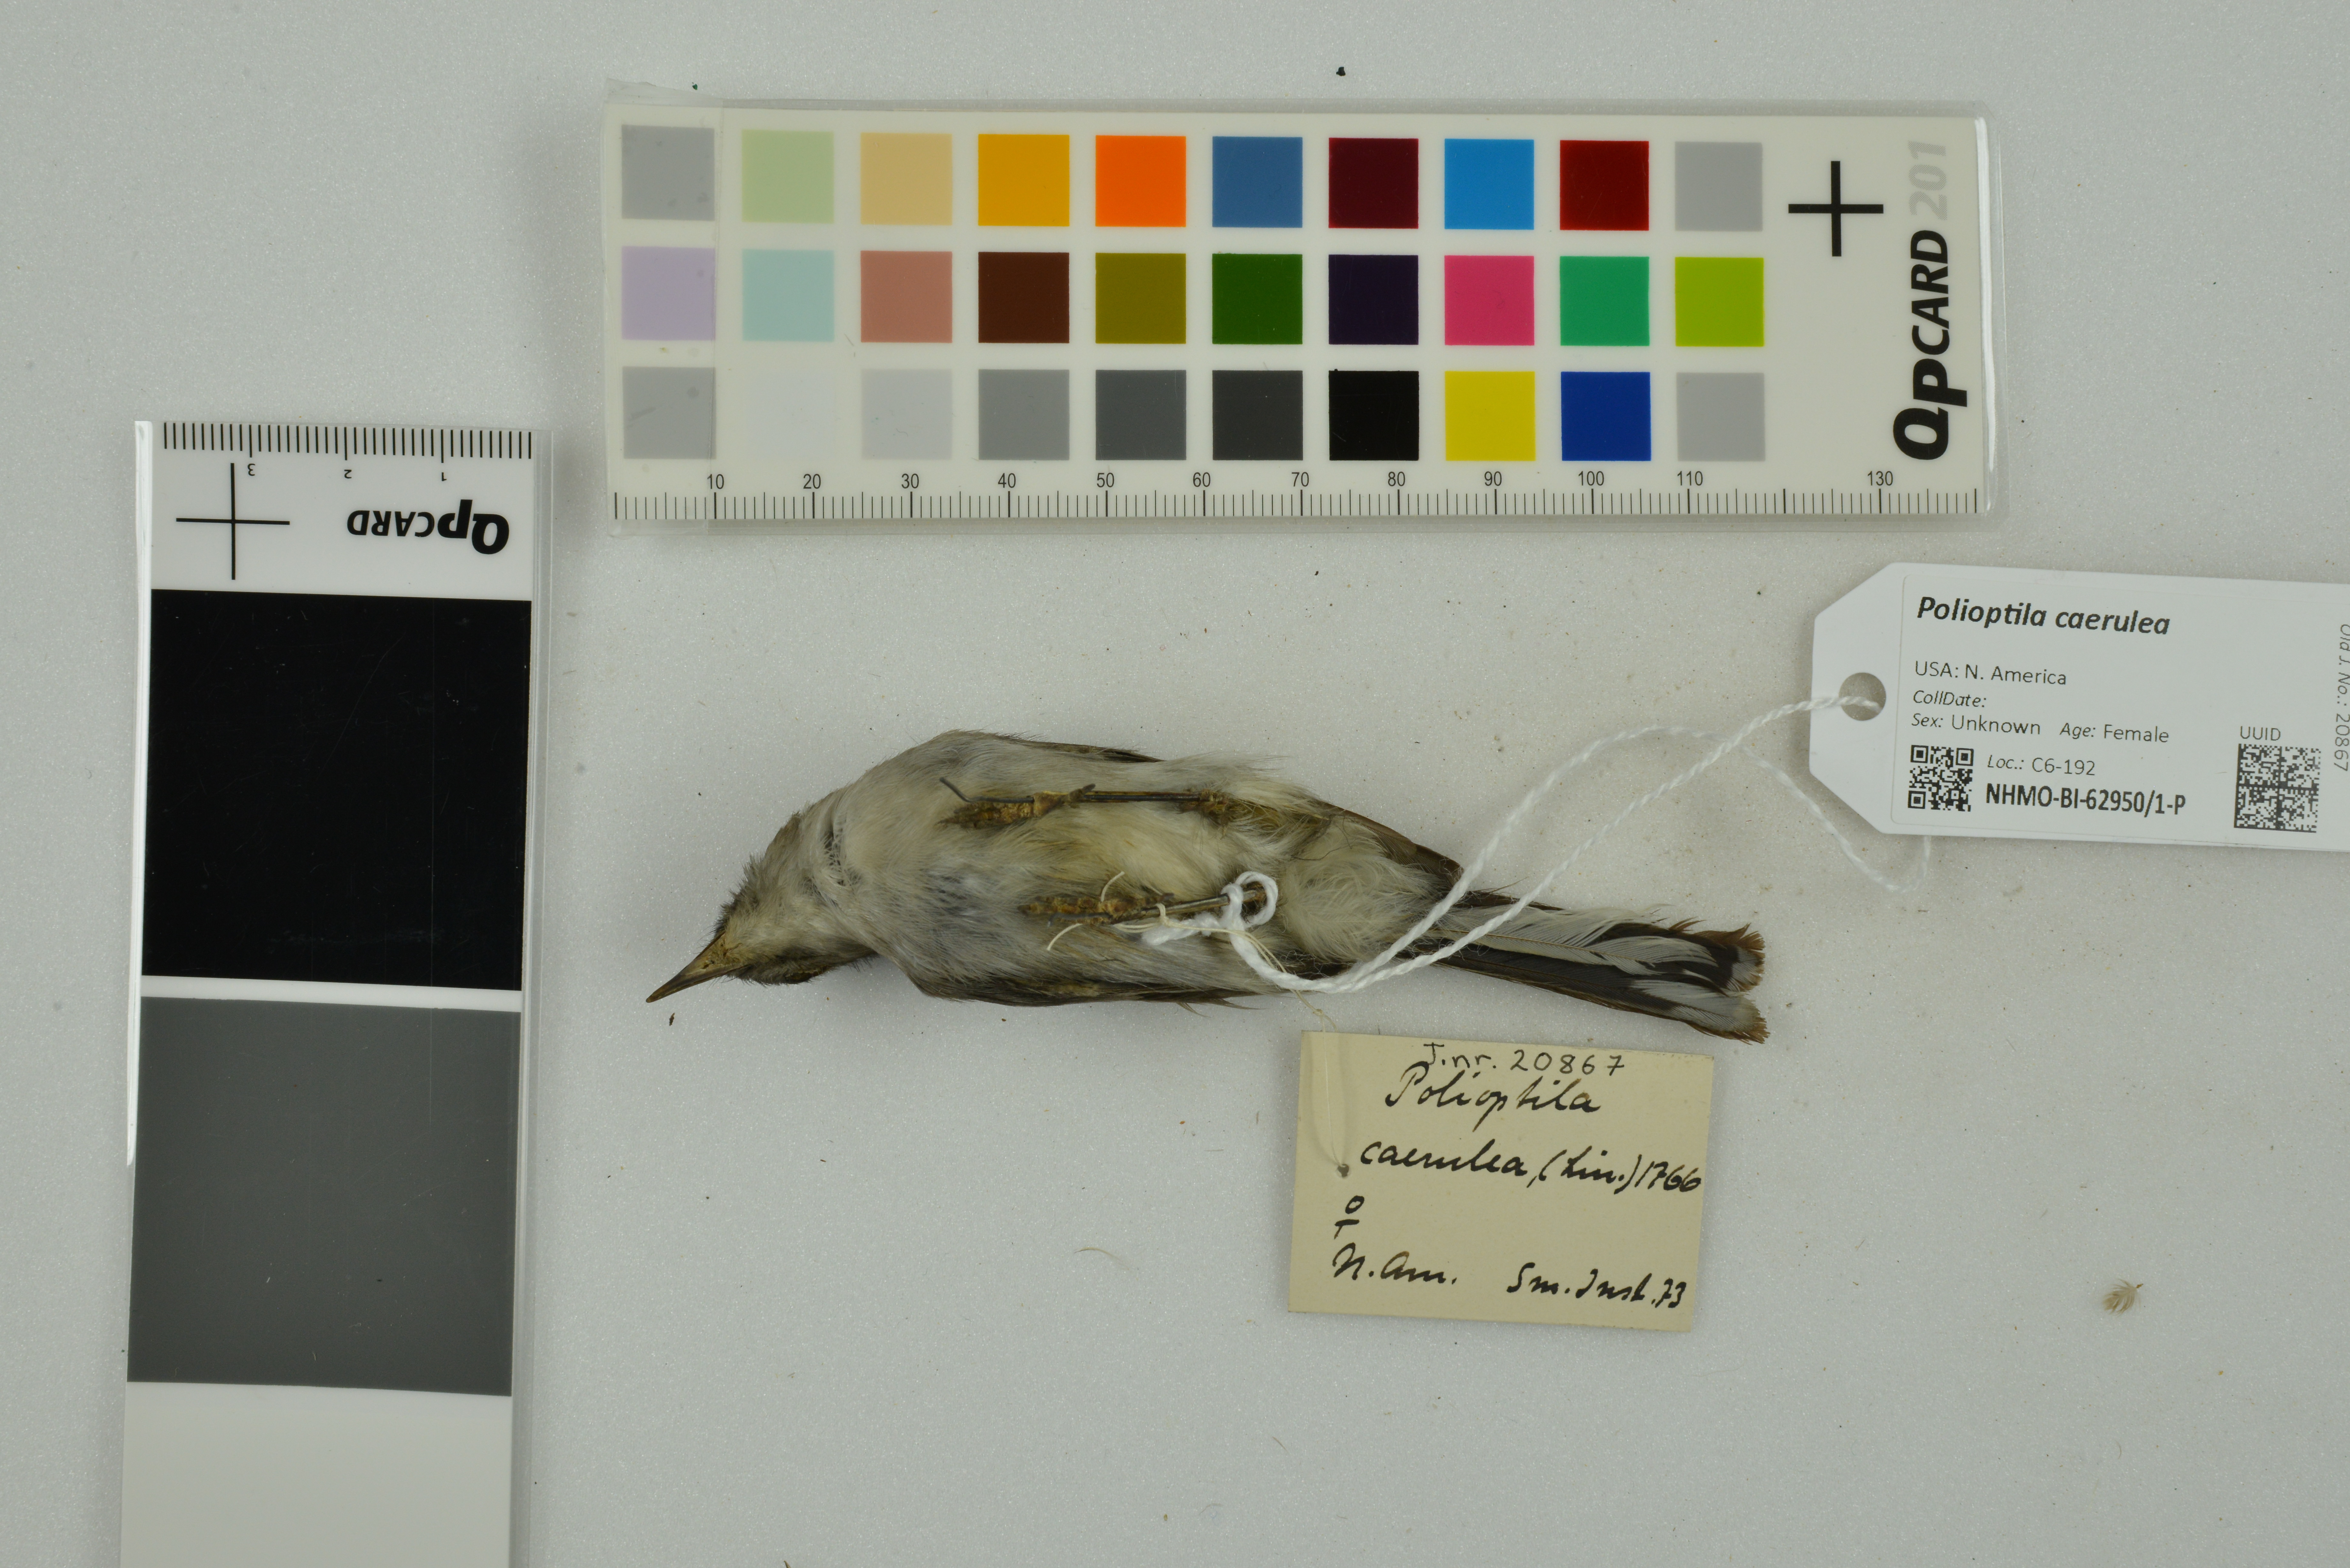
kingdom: Animalia
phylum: Chordata
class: Aves
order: Passeriformes
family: Polioptilidae
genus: Polioptila
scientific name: Polioptila caerulea
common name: Blue-gray gnatcatcher
